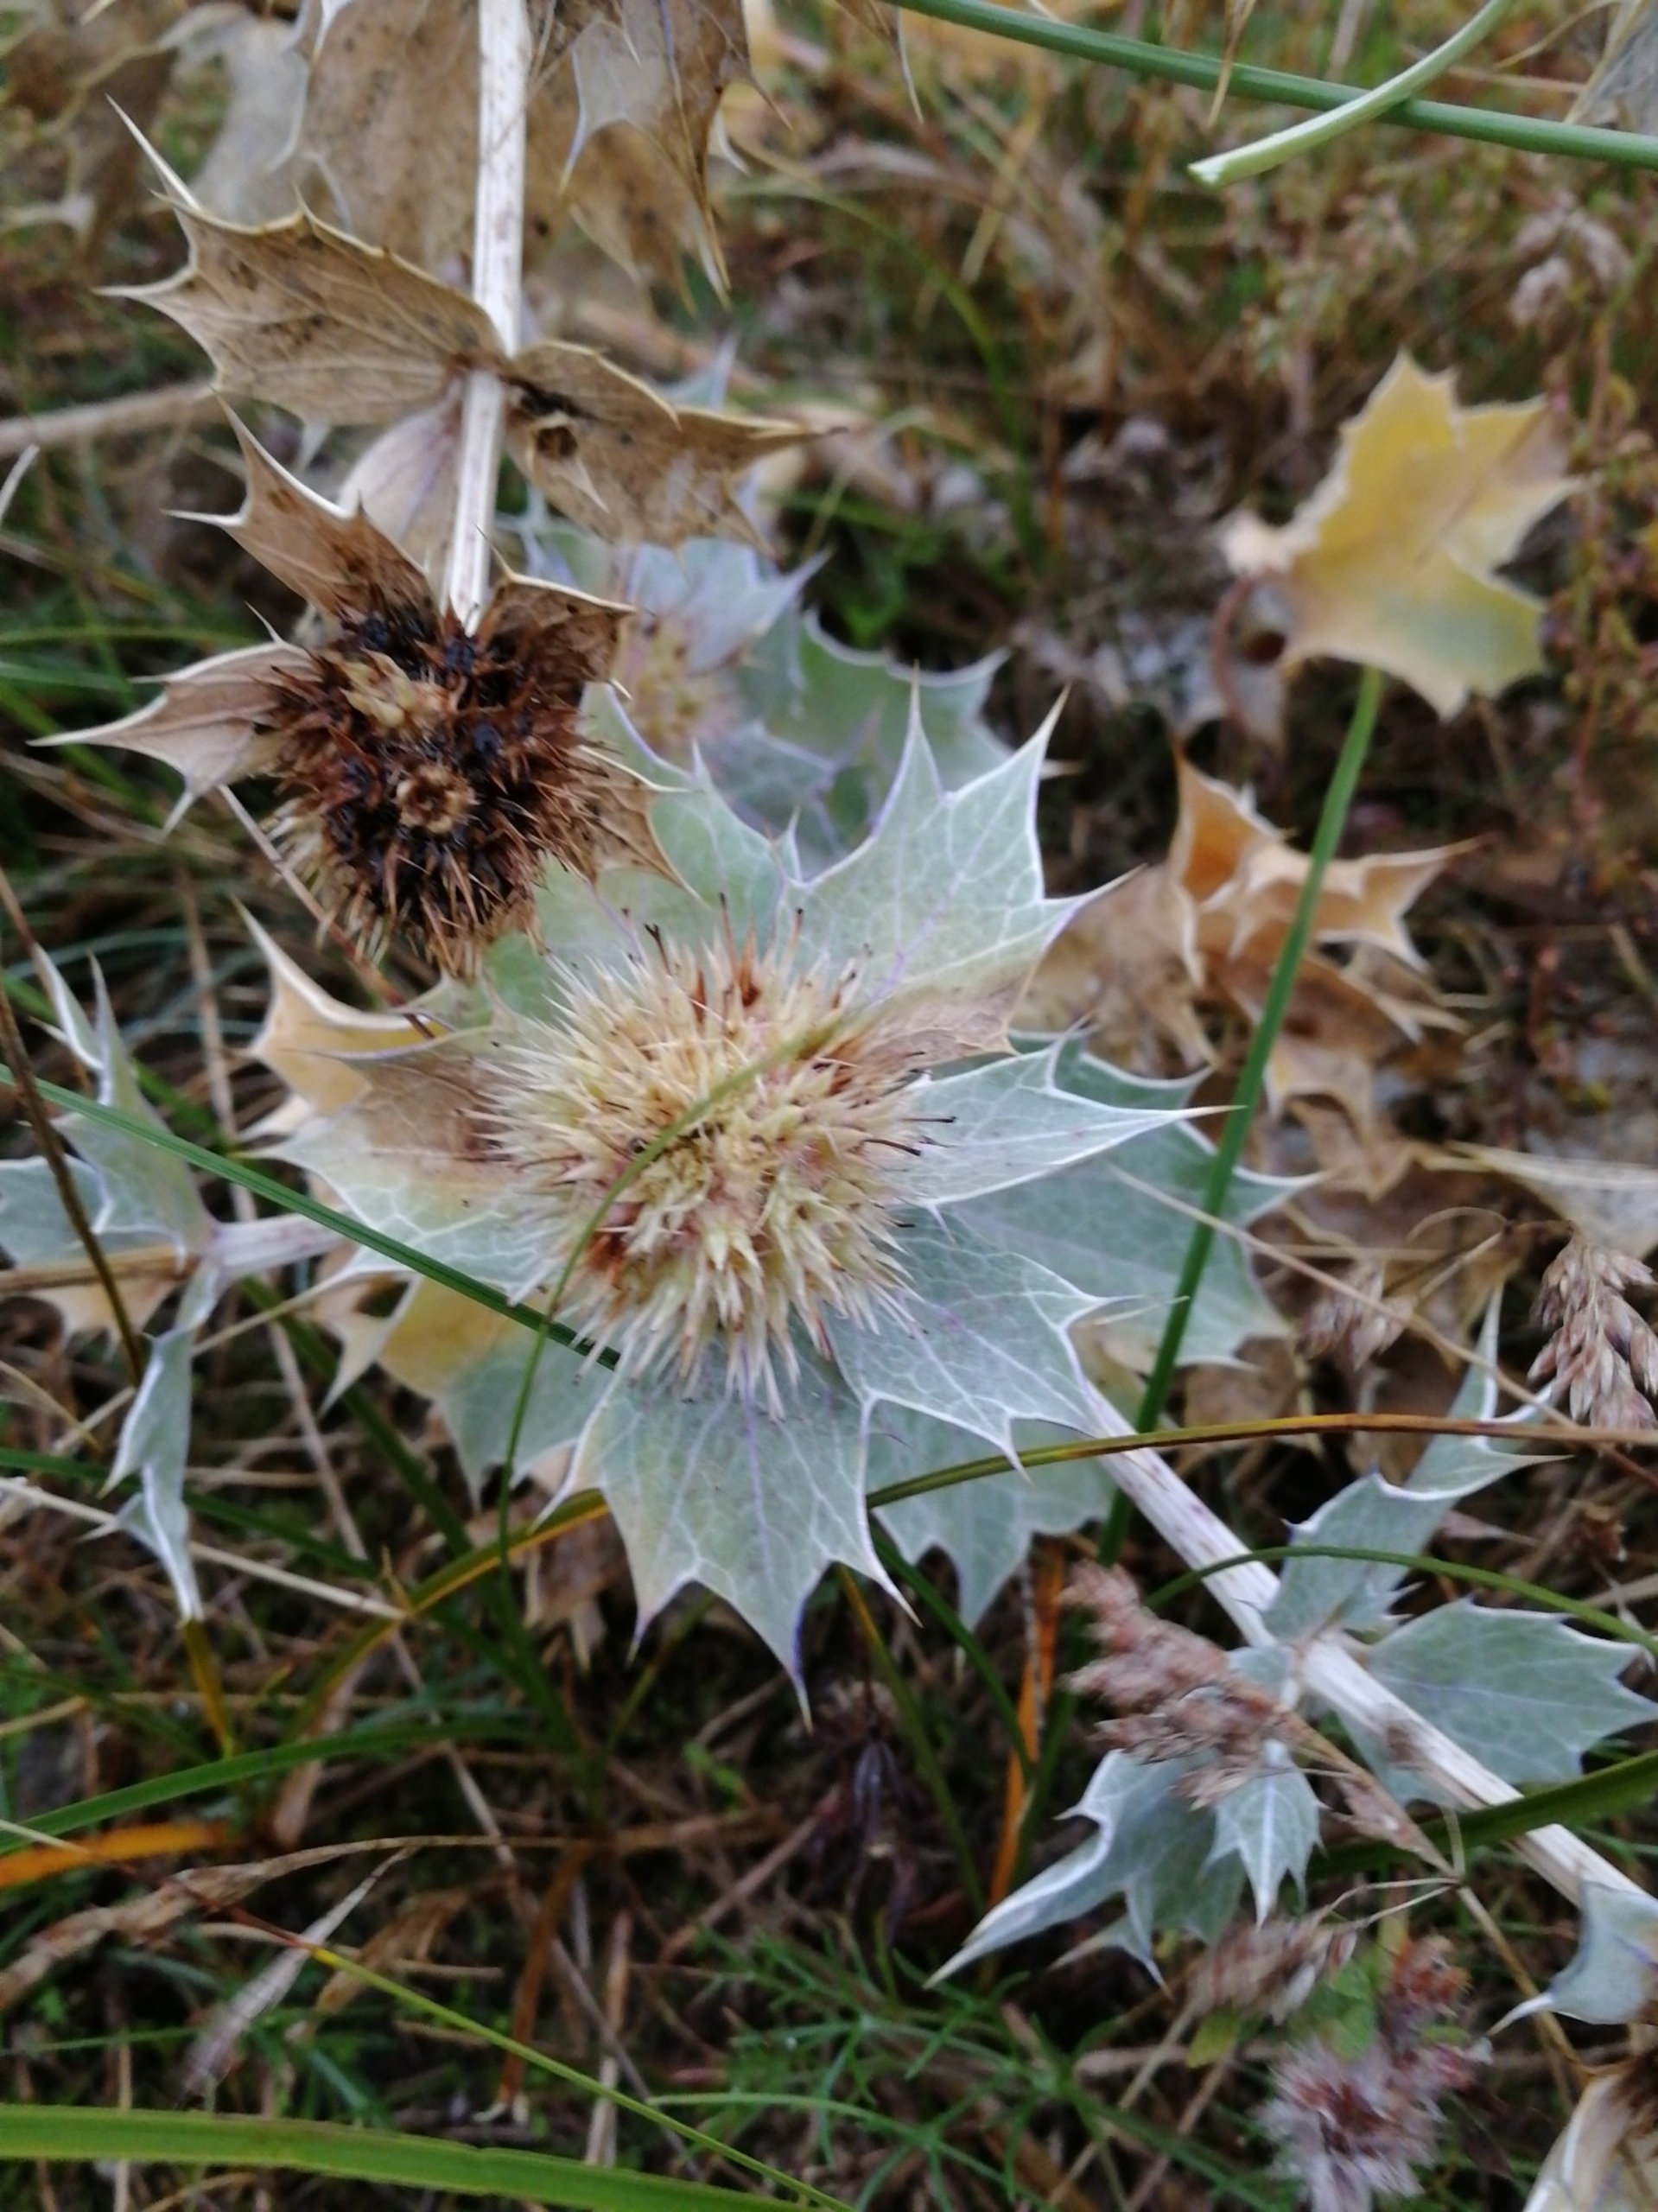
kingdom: Plantae
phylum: Tracheophyta
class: Magnoliopsida
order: Apiales
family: Apiaceae
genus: Eryngium
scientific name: Eryngium maritimum
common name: Strand-mandstro
